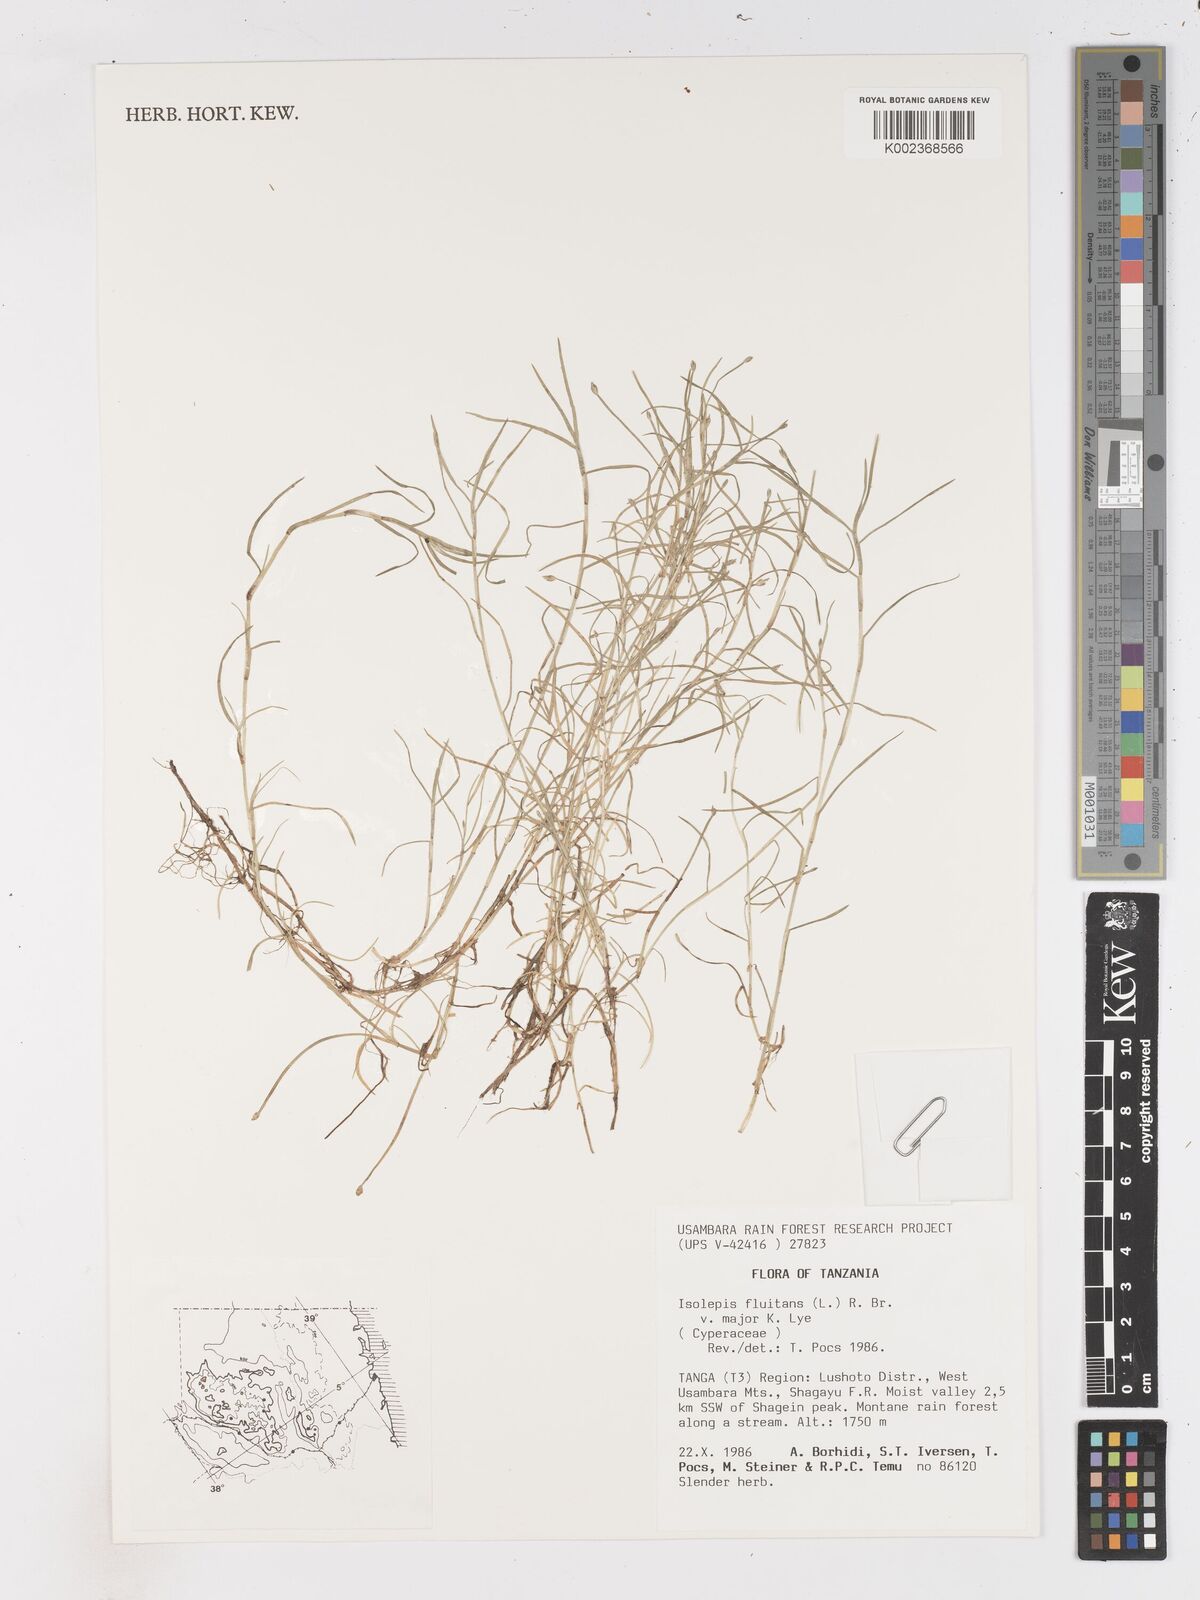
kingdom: Plantae
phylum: Tracheophyta
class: Liliopsida
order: Poales
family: Cyperaceae
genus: Isolepis
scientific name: Isolepis fluitans
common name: Floating club-rush
